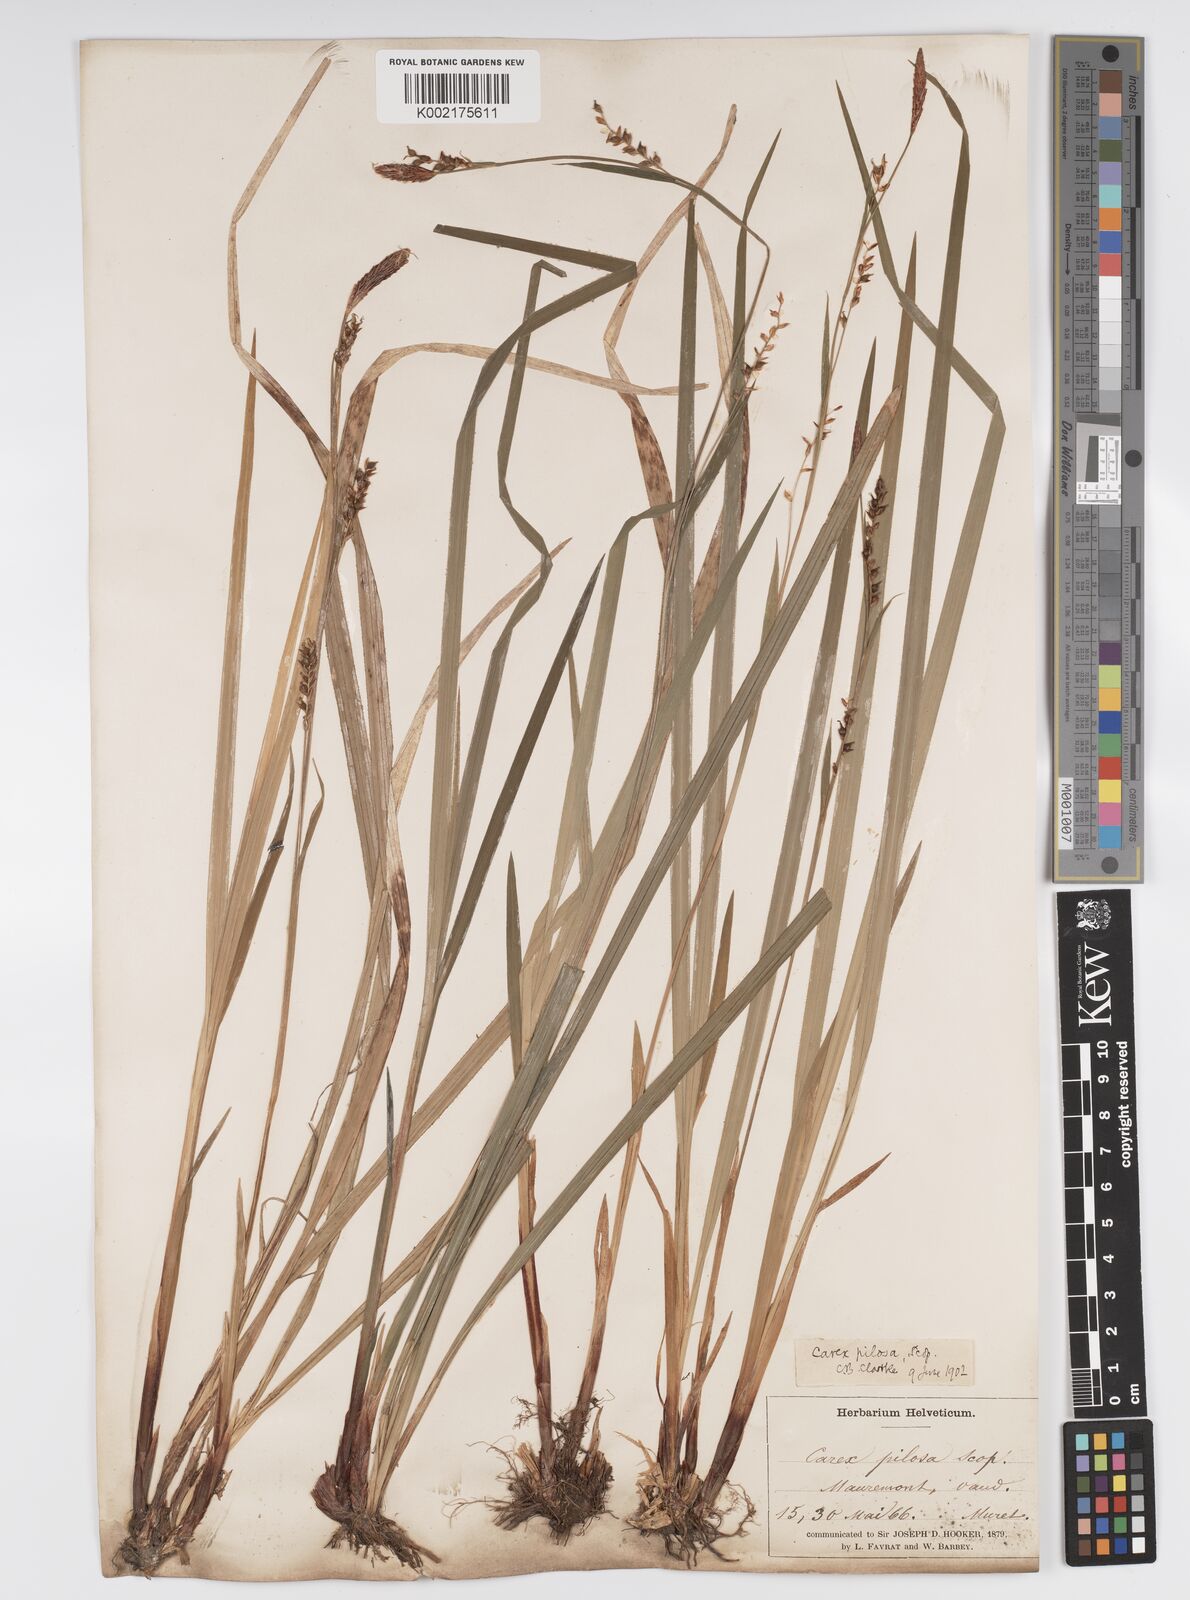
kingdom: Plantae
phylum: Tracheophyta
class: Liliopsida
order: Poales
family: Cyperaceae
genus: Carex
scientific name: Carex pilosa
